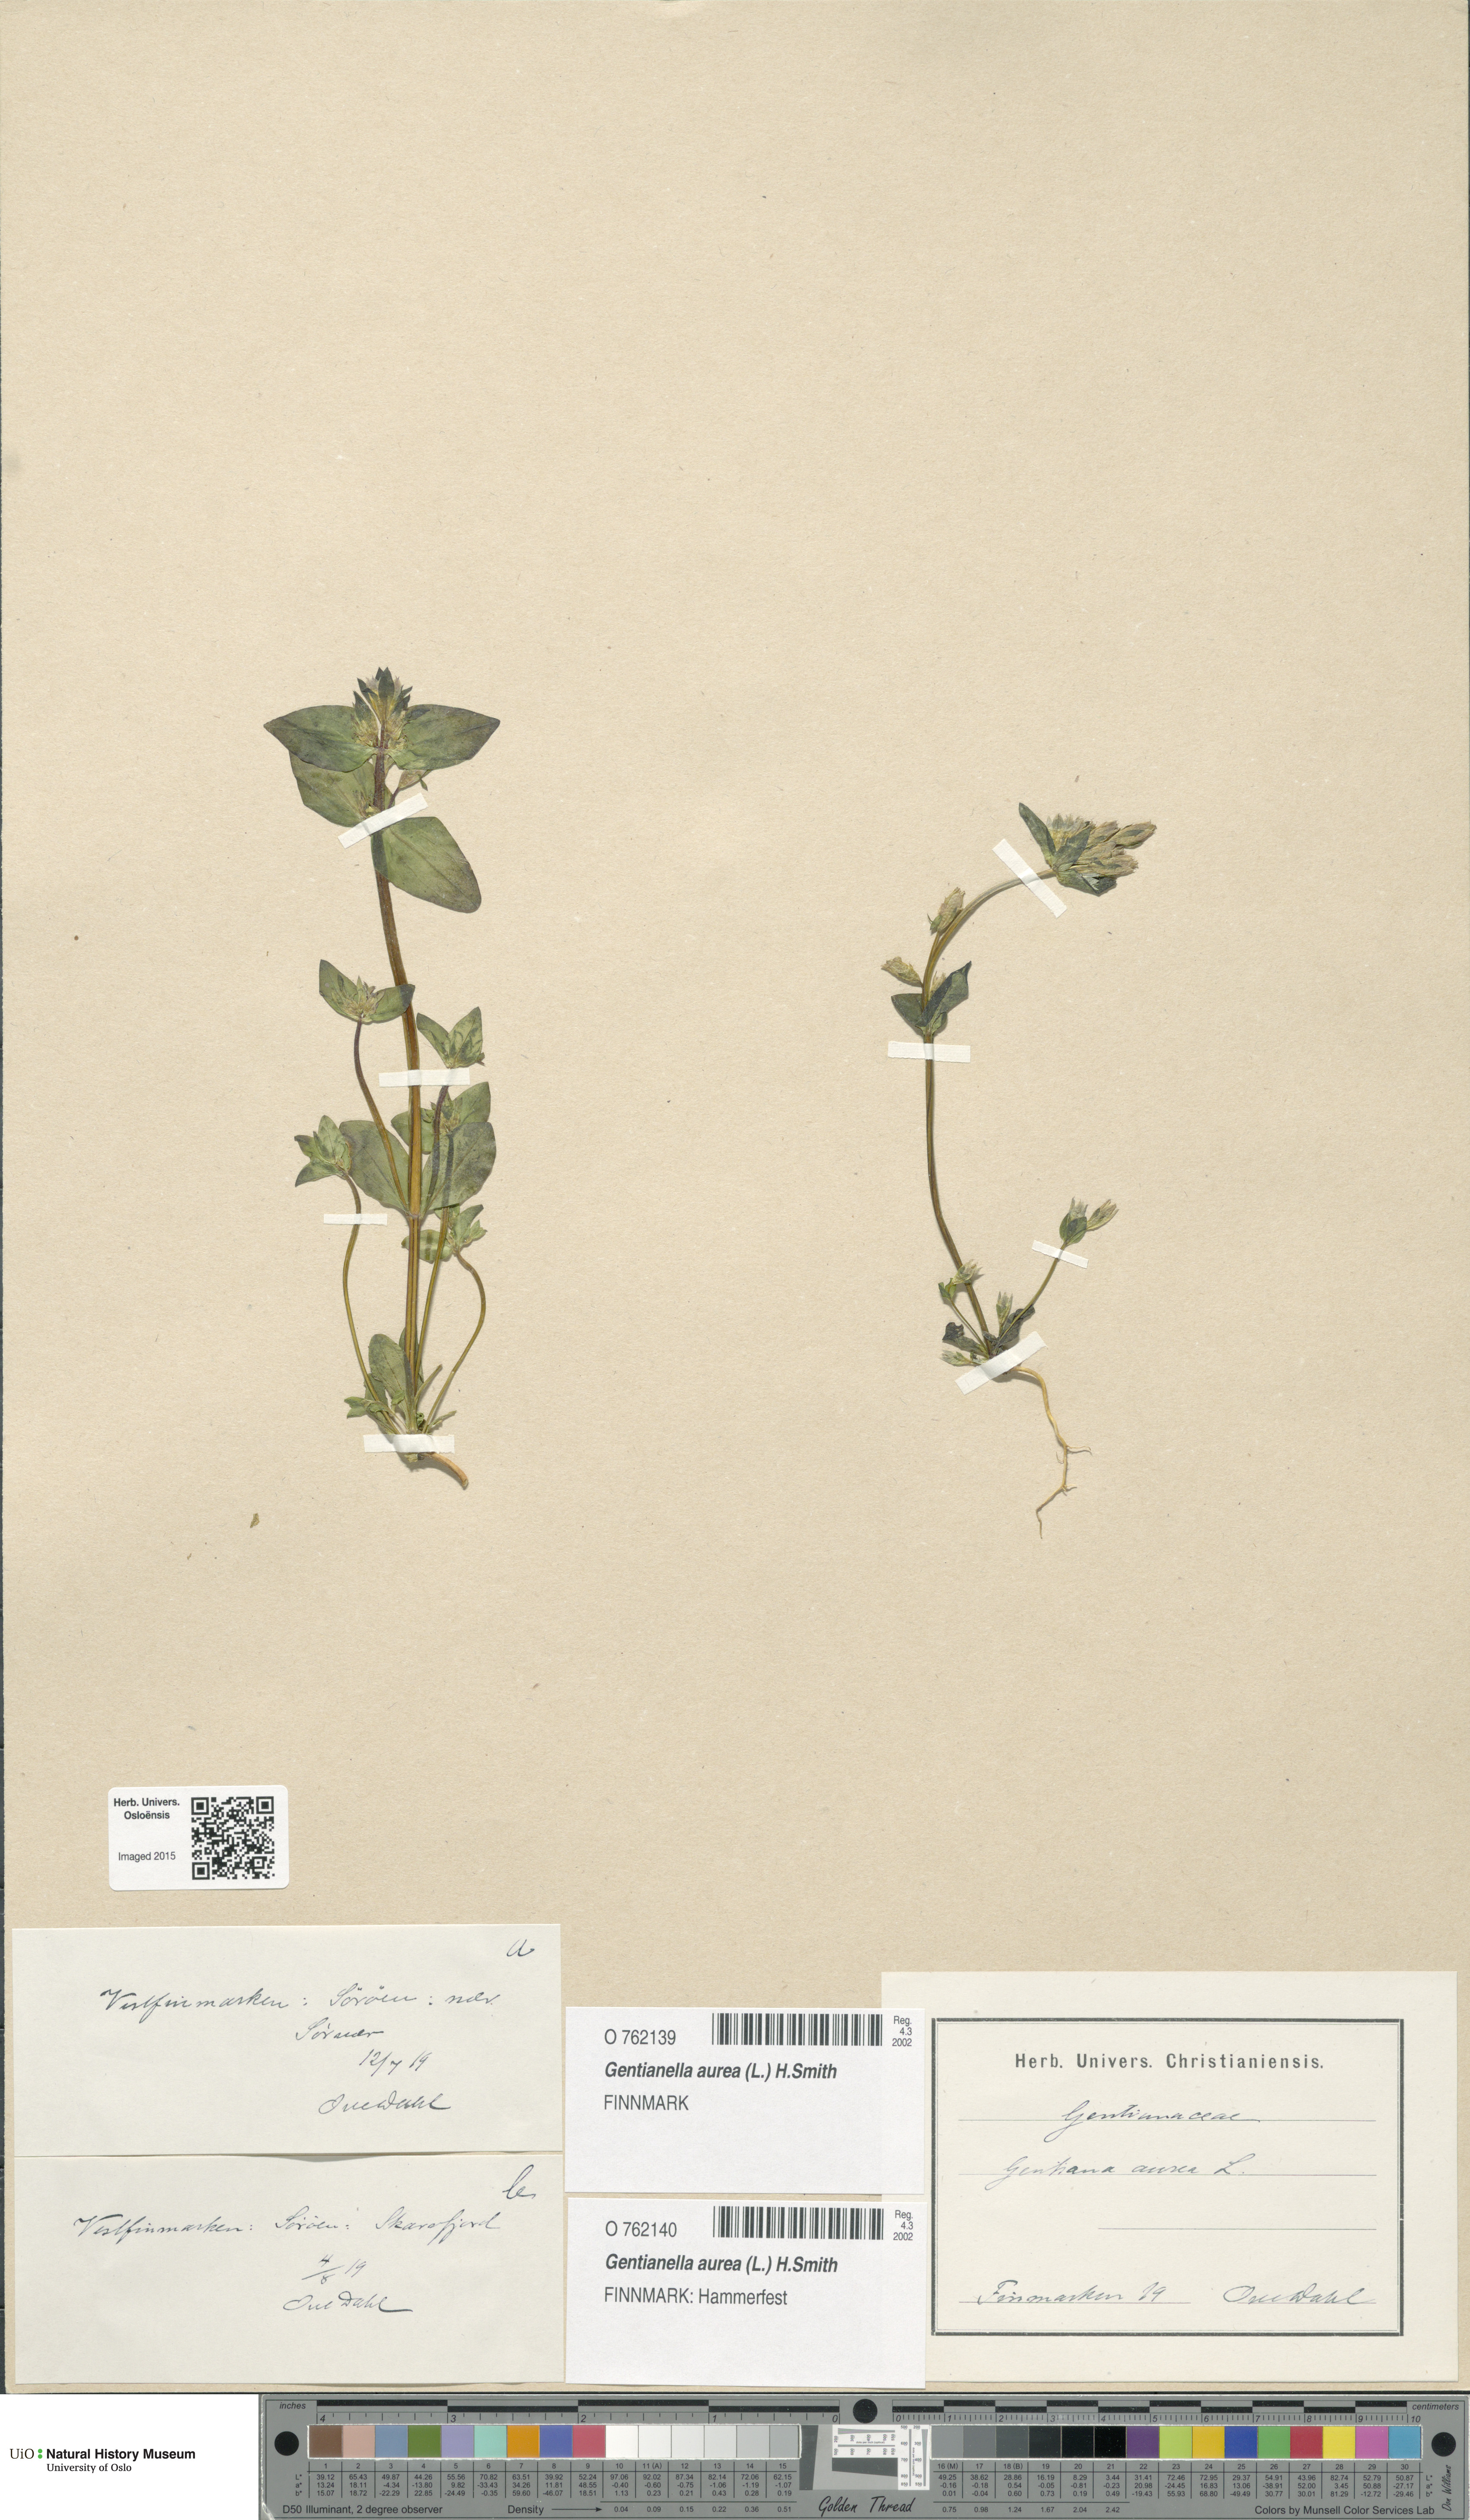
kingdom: Plantae
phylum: Tracheophyta
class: Magnoliopsida
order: Gentianales
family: Gentianaceae
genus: Gentianella
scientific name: Gentianella aurea
